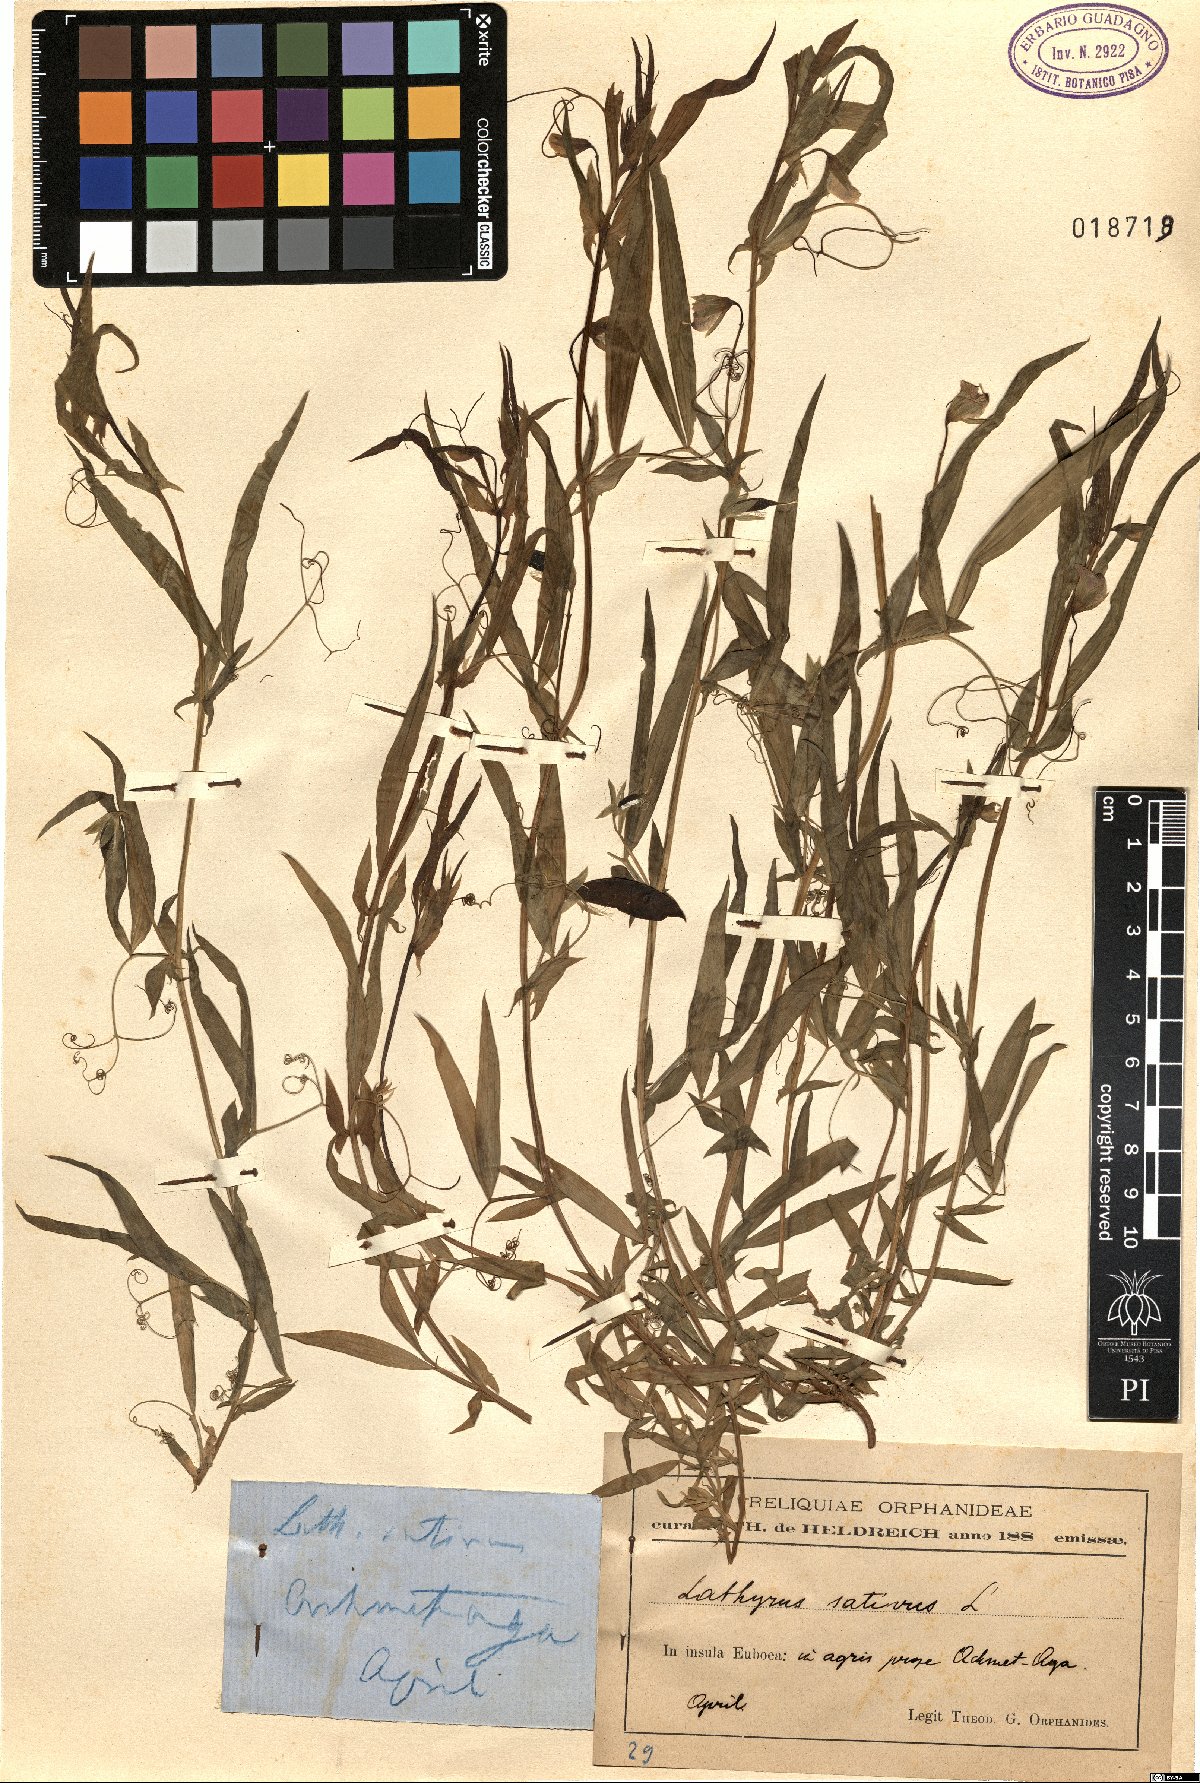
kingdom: Plantae
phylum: Tracheophyta
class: Magnoliopsida
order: Fabales
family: Fabaceae
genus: Lathyrus
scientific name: Lathyrus sativus
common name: Indian pea
